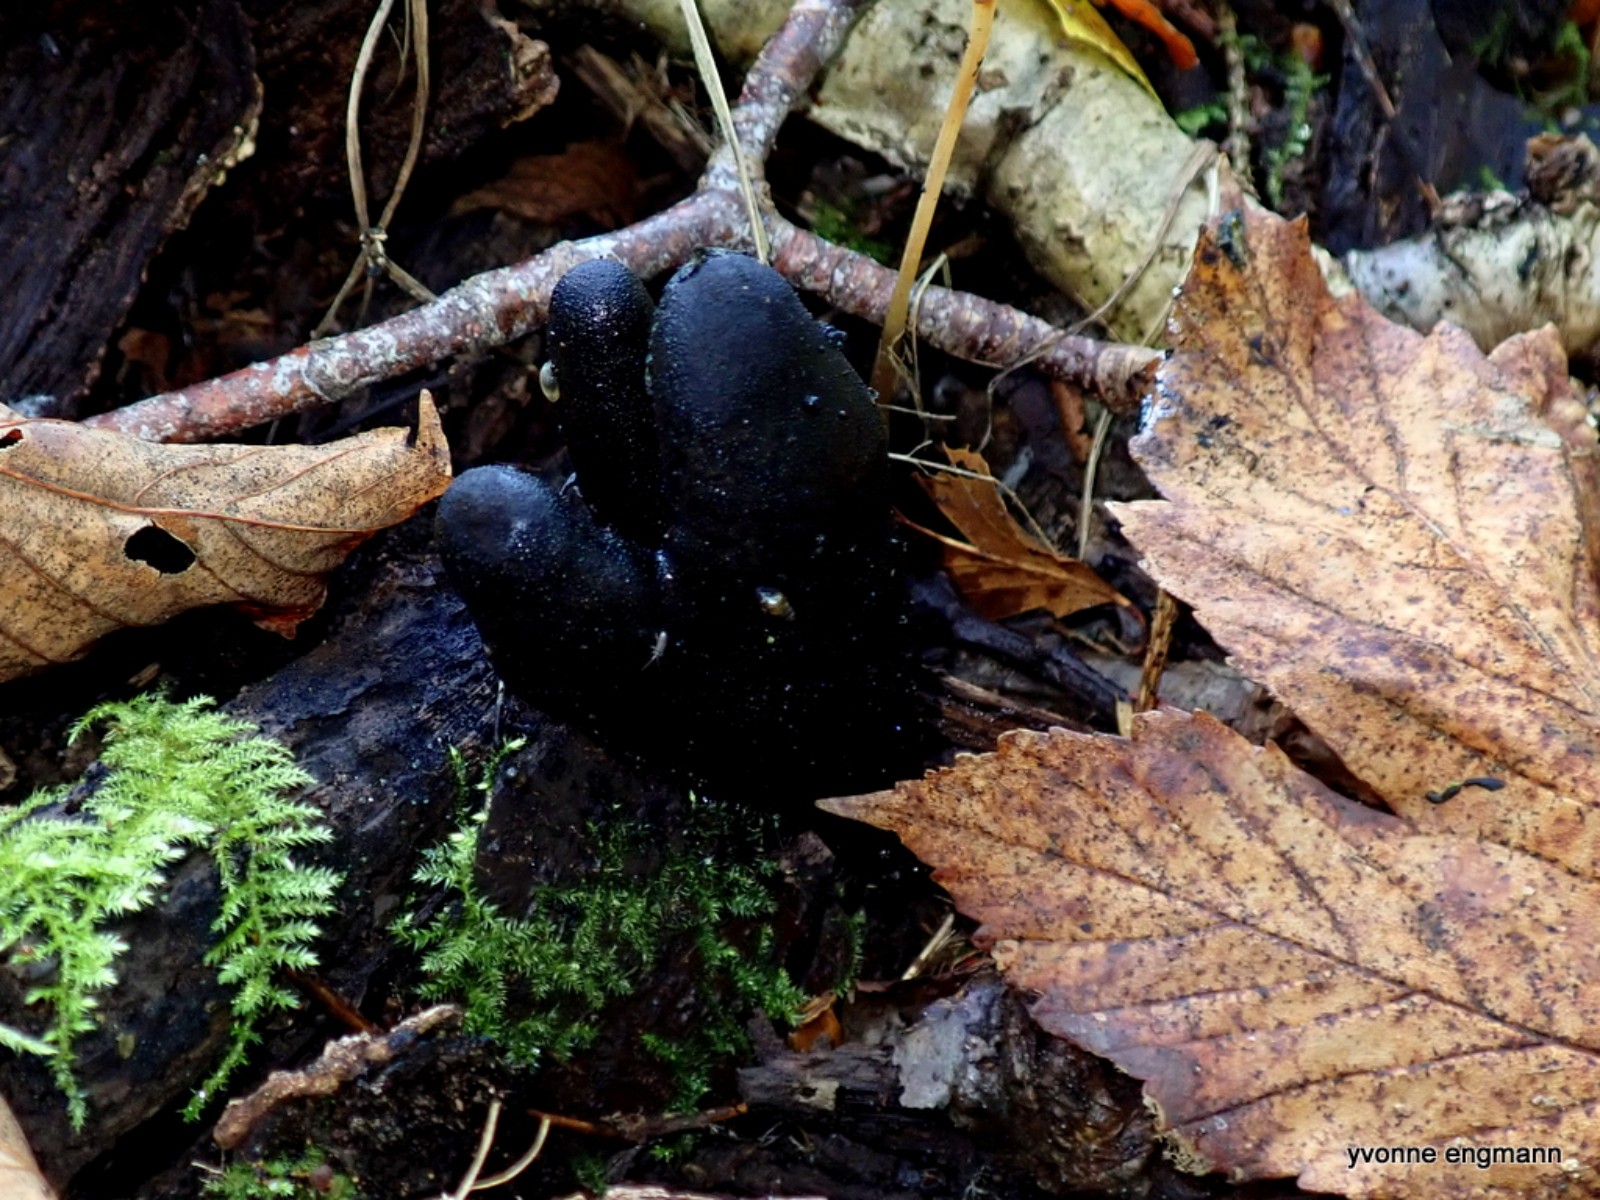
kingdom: Fungi
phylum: Ascomycota
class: Sordariomycetes
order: Xylariales
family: Xylariaceae
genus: Xylaria
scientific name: Xylaria
